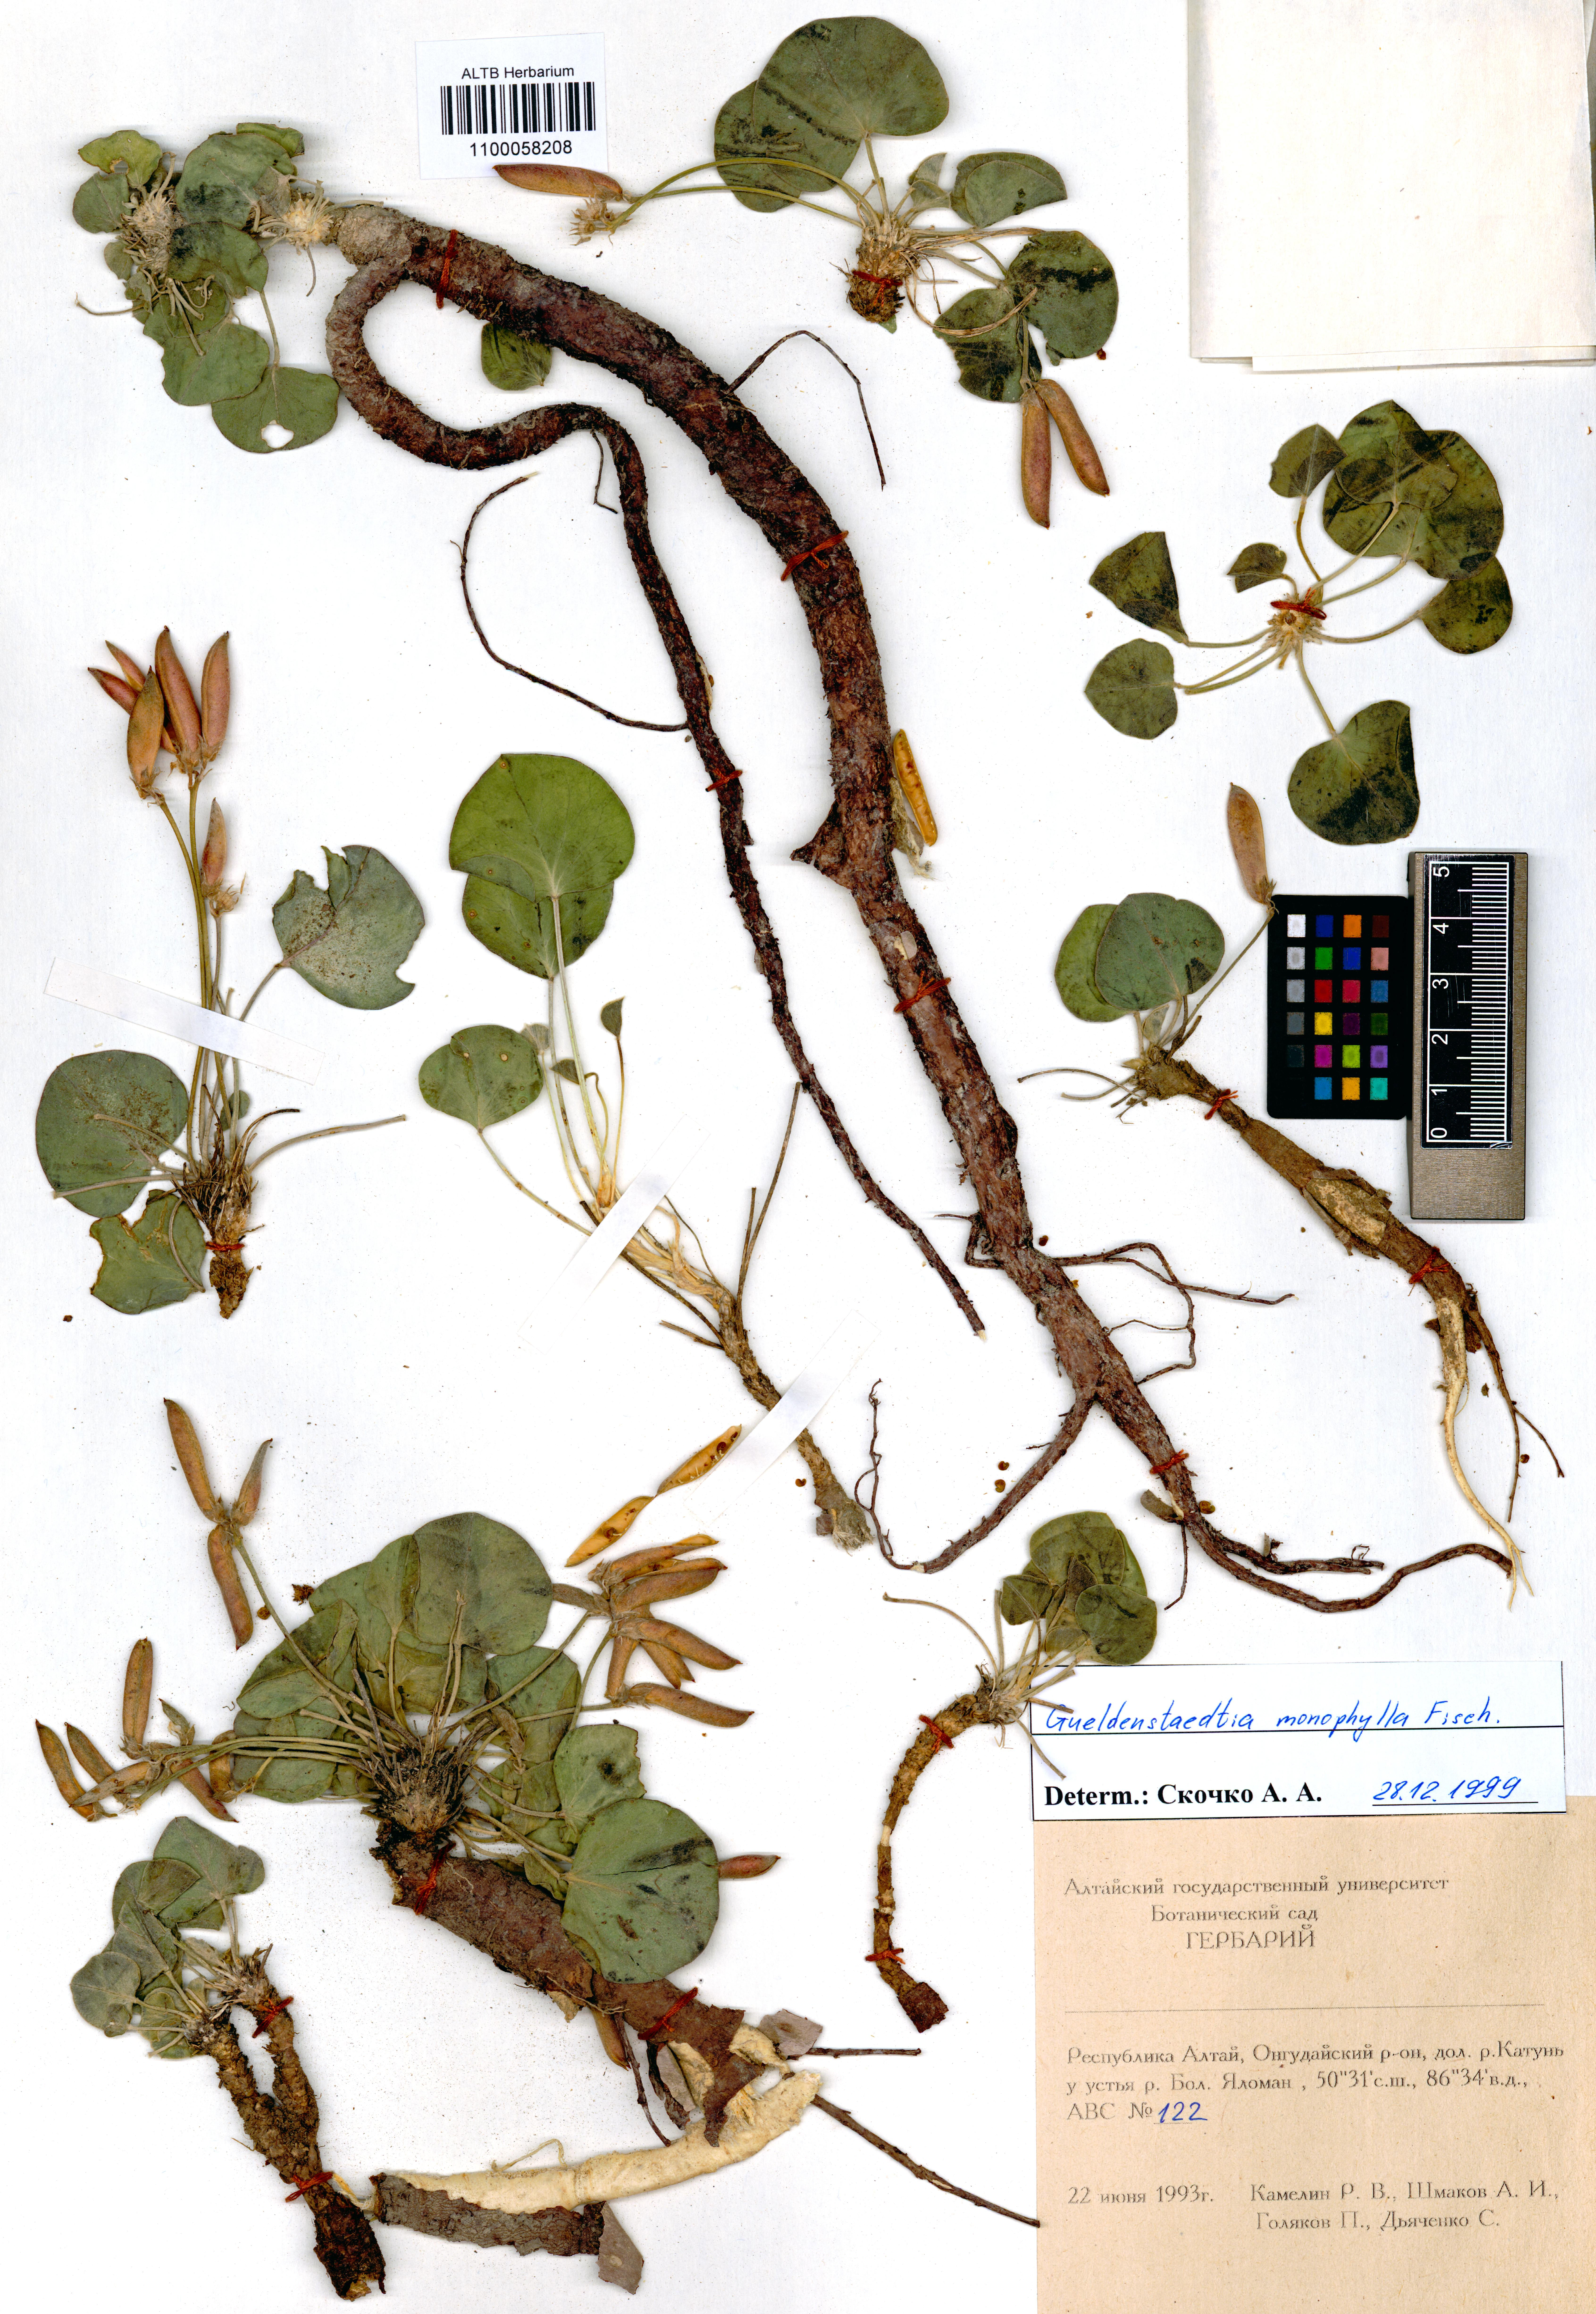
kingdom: Plantae
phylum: Tracheophyta
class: Magnoliopsida
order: Fabales
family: Fabaceae
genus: Gueldenstaedtia
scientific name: Gueldenstaedtia monophylla
